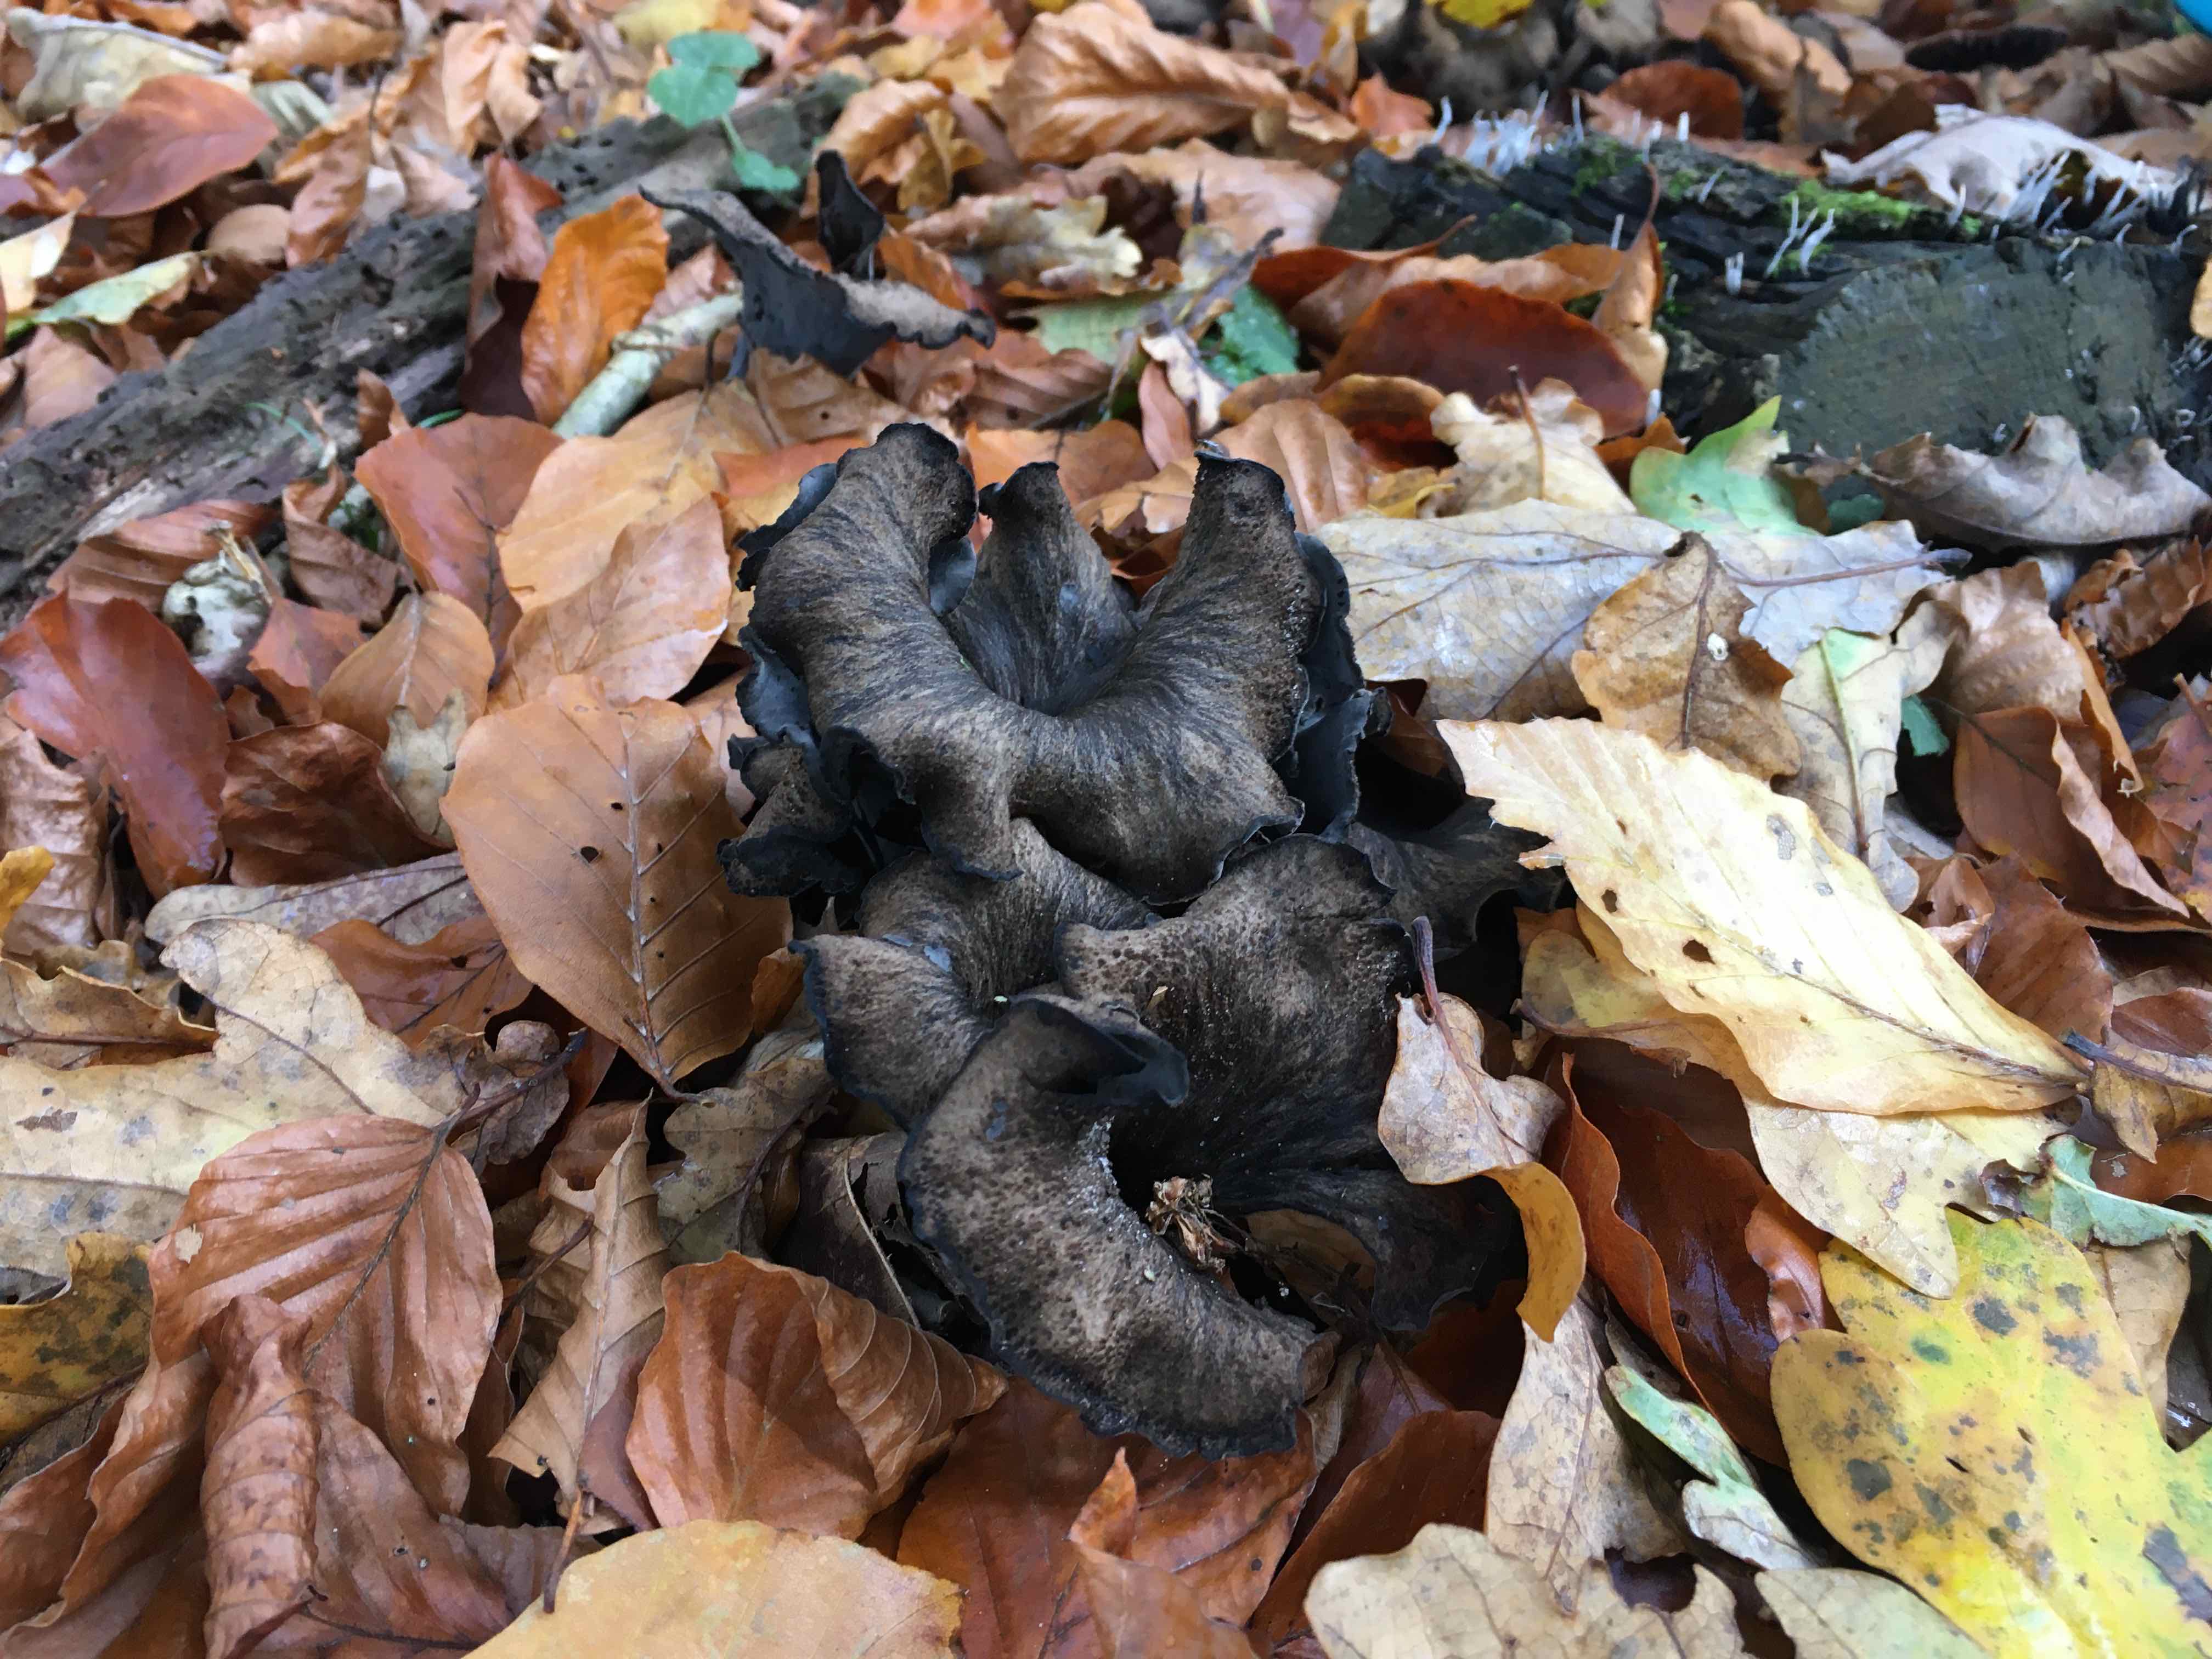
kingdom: Fungi
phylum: Basidiomycota
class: Agaricomycetes
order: Cantharellales
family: Hydnaceae
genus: Craterellus
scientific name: Craterellus cornucopioides
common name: trompetsvamp
